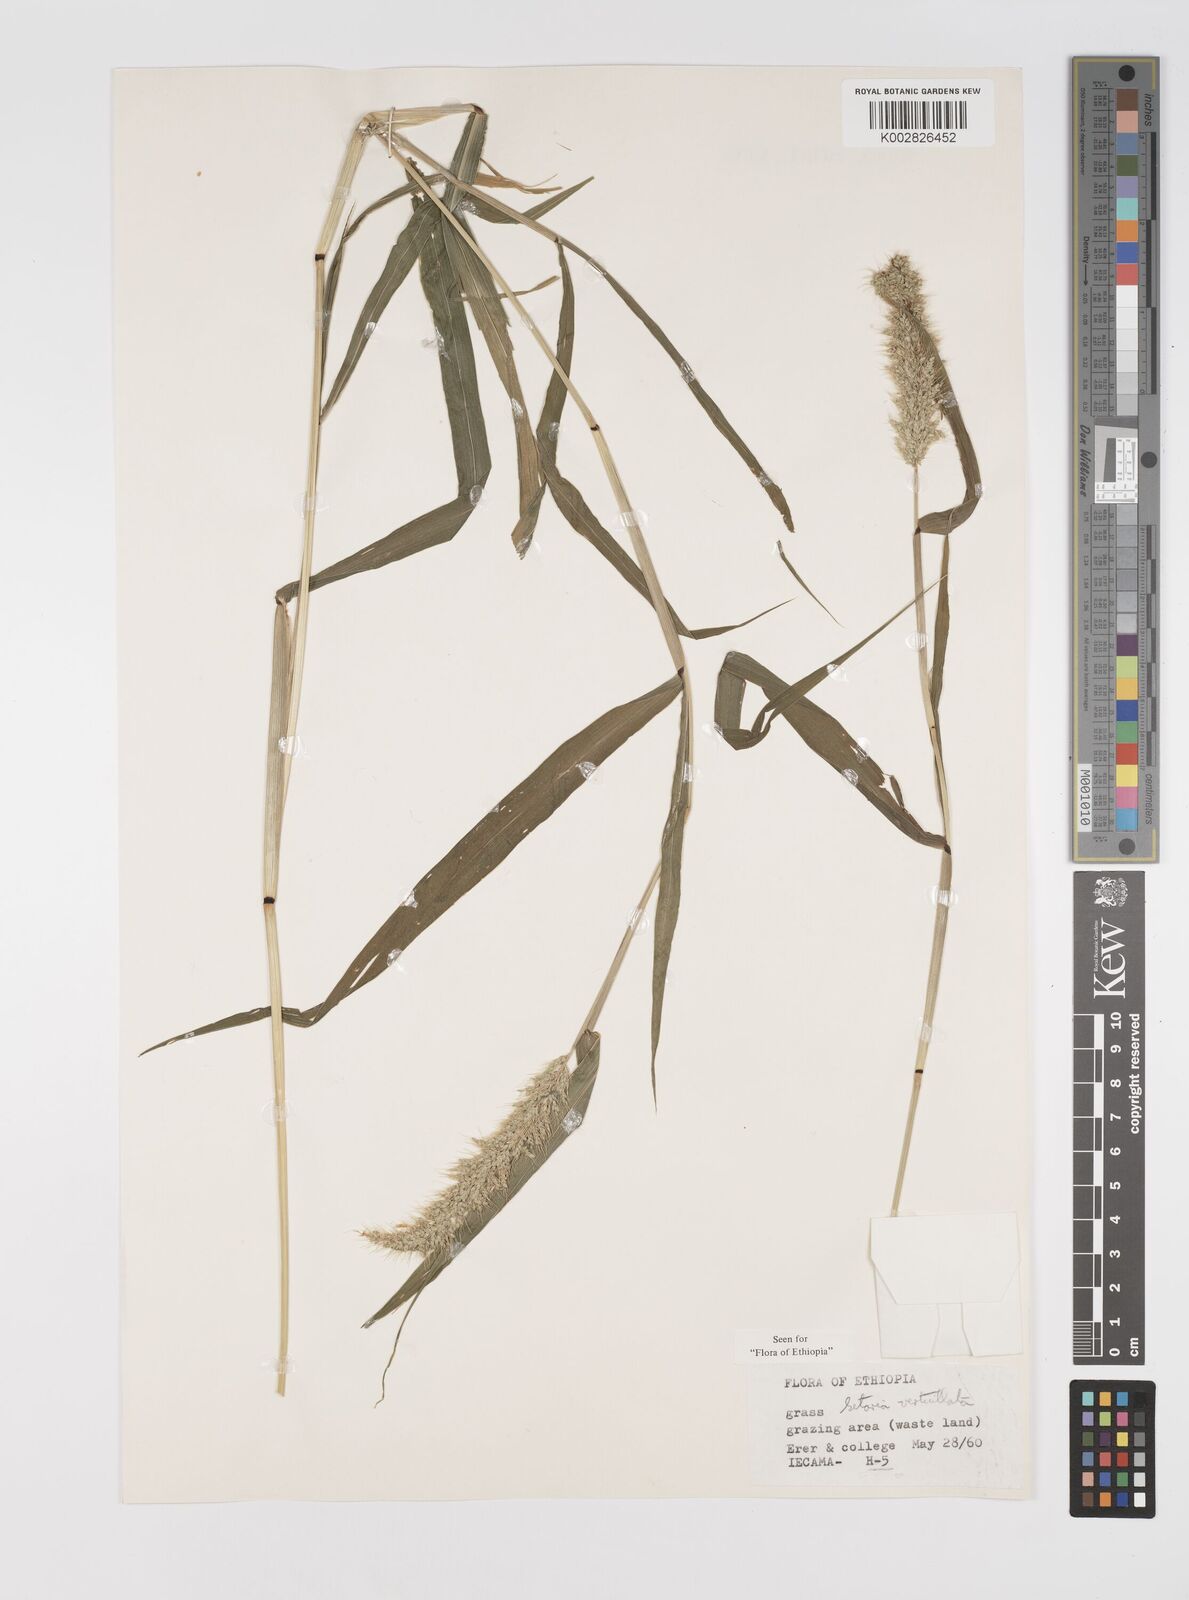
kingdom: Plantae
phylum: Tracheophyta
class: Liliopsida
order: Poales
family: Poaceae
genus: Setaria
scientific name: Setaria verticillata
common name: Hooked bristlegrass
